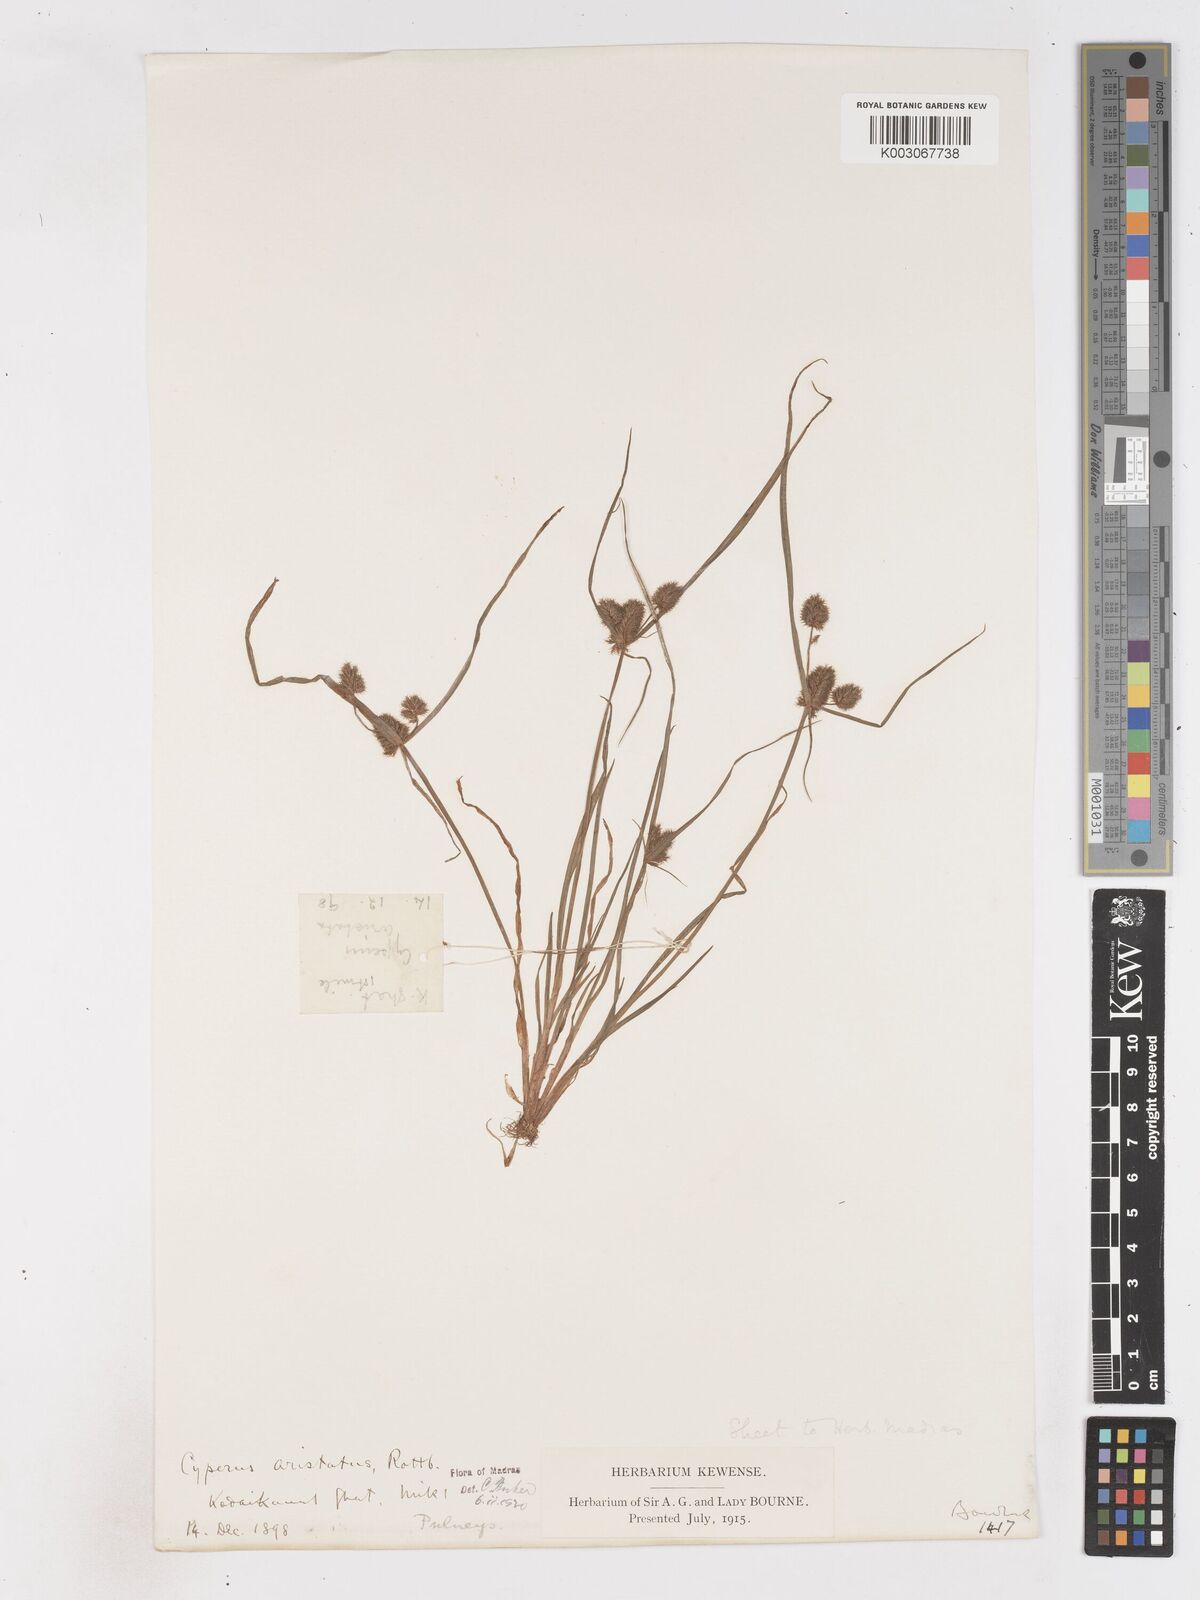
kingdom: Plantae
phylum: Tracheophyta
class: Liliopsida
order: Poales
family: Cyperaceae
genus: Cyperus
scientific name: Cyperus squarrosus
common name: Awned cyperus
